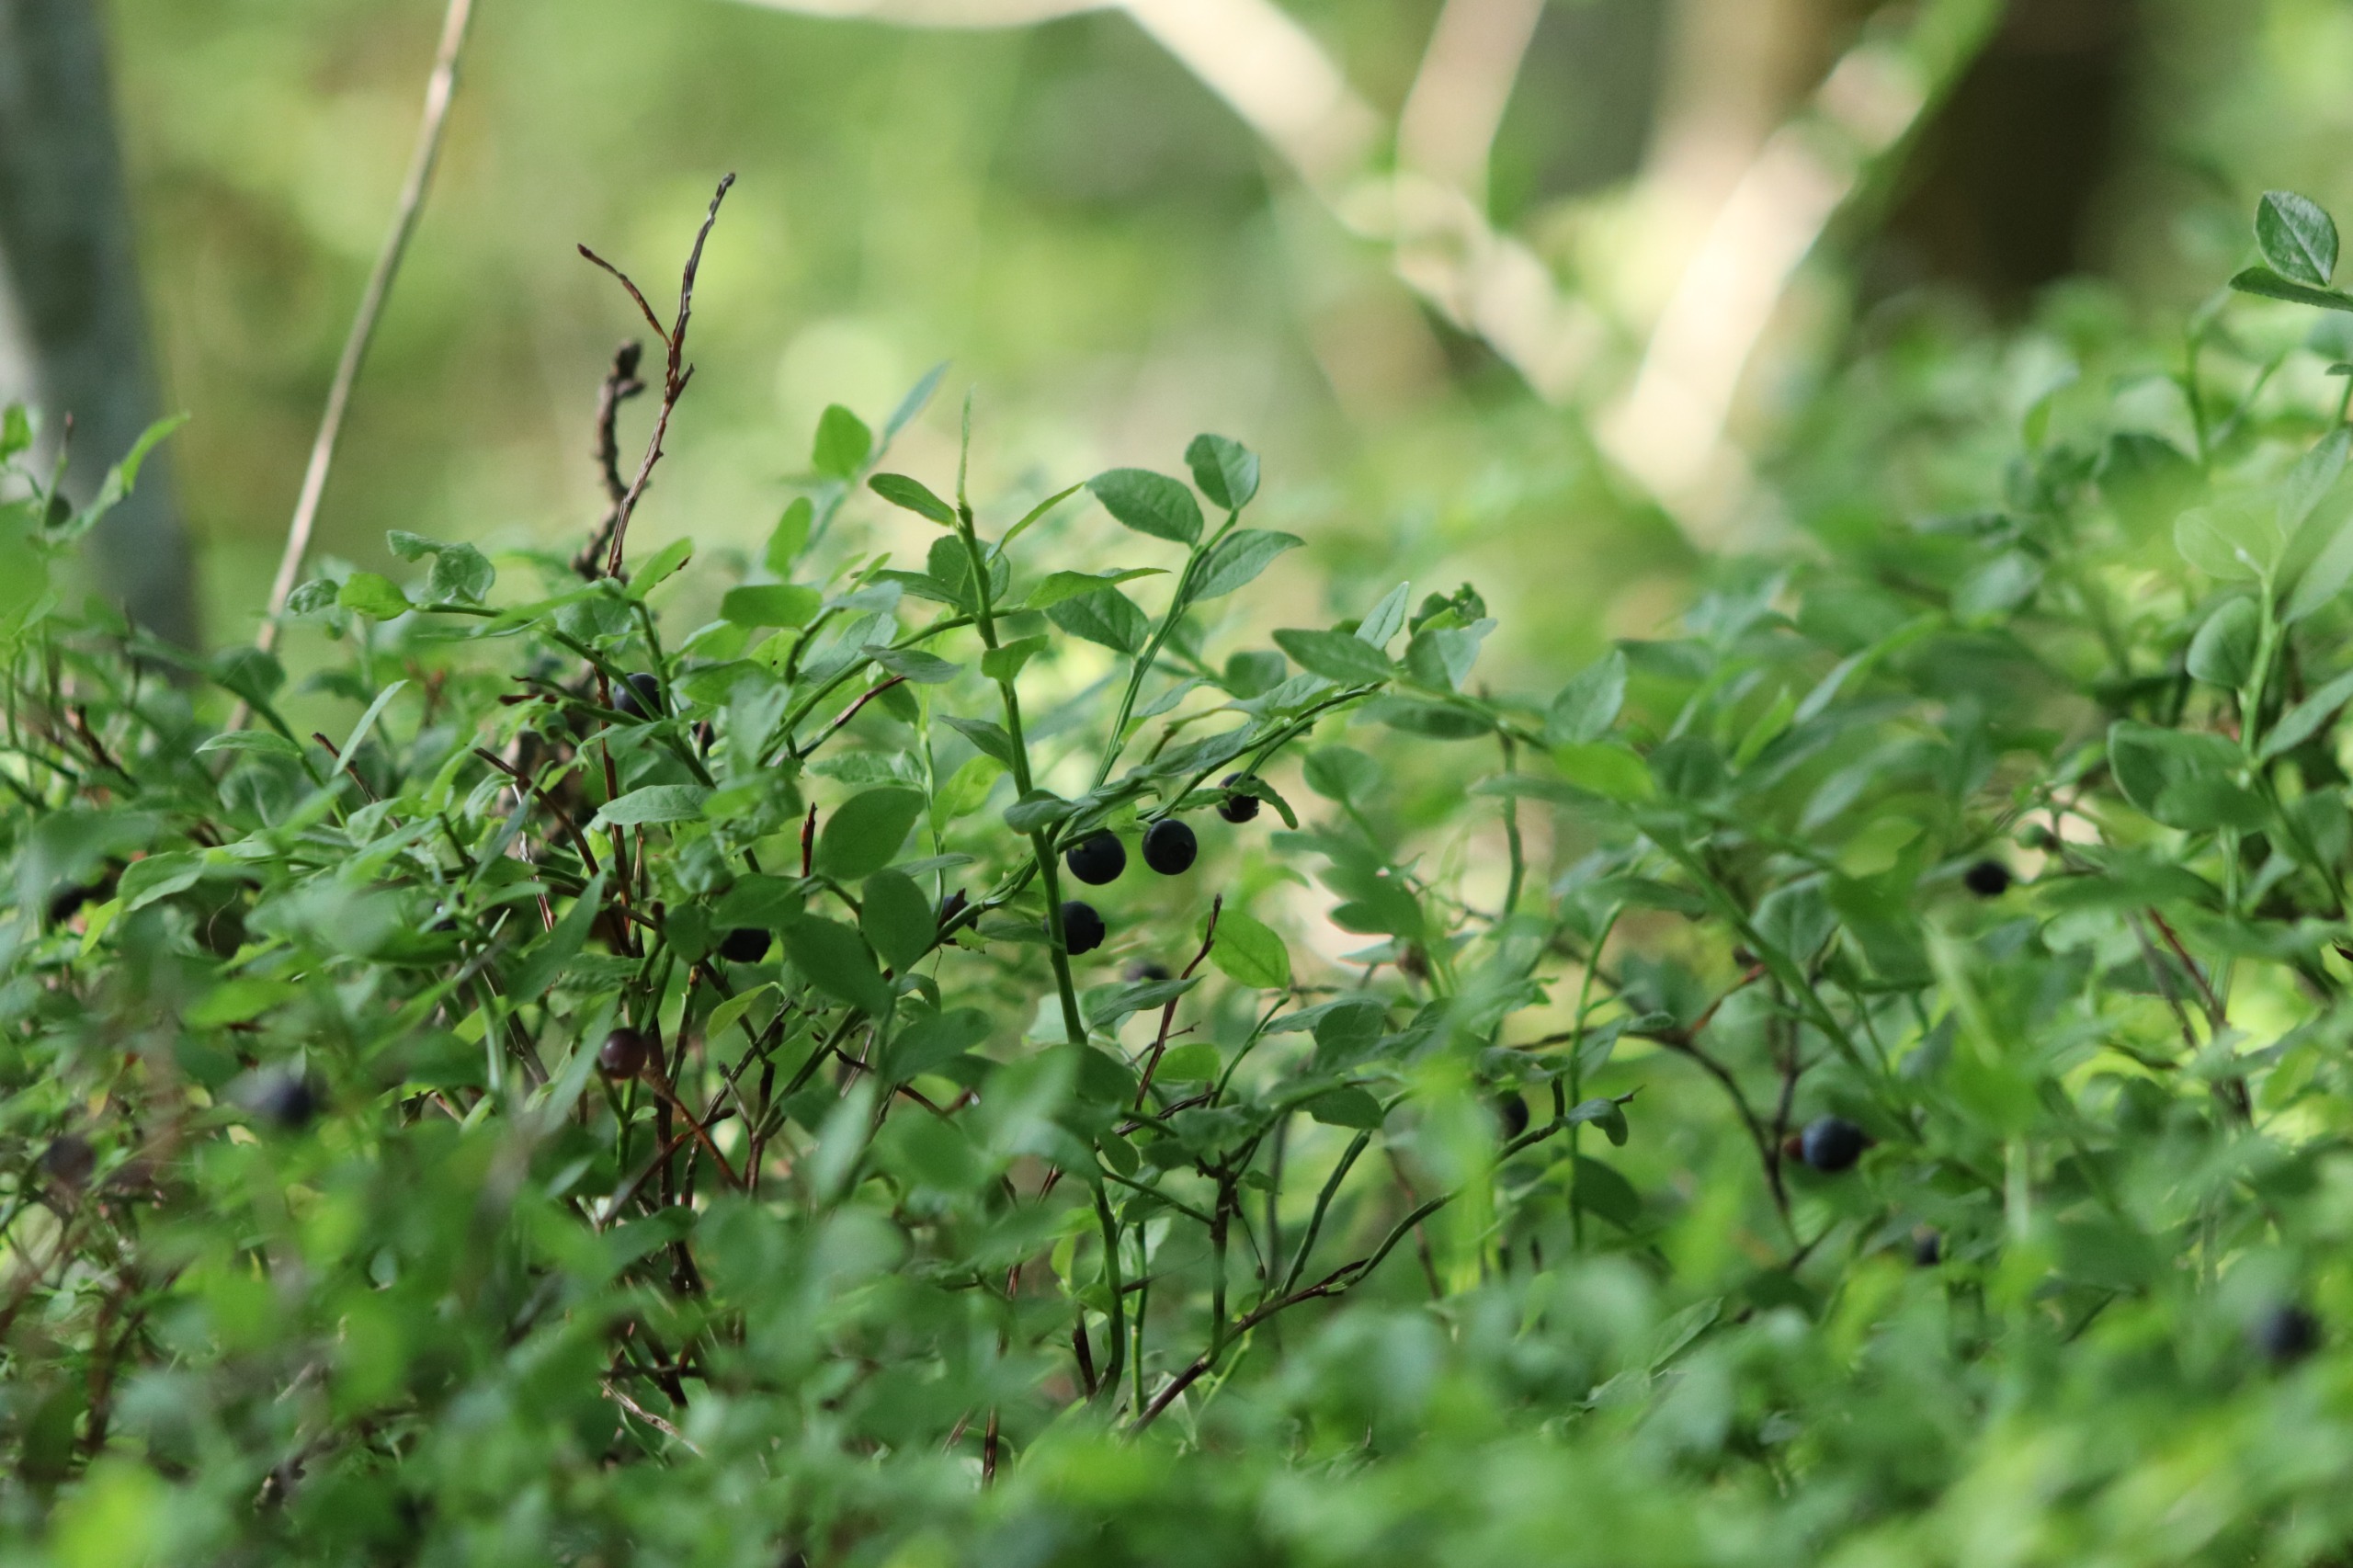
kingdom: Plantae
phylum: Tracheophyta
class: Magnoliopsida
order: Ericales
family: Ericaceae
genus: Vaccinium
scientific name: Vaccinium myrtillus
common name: Blåbær
